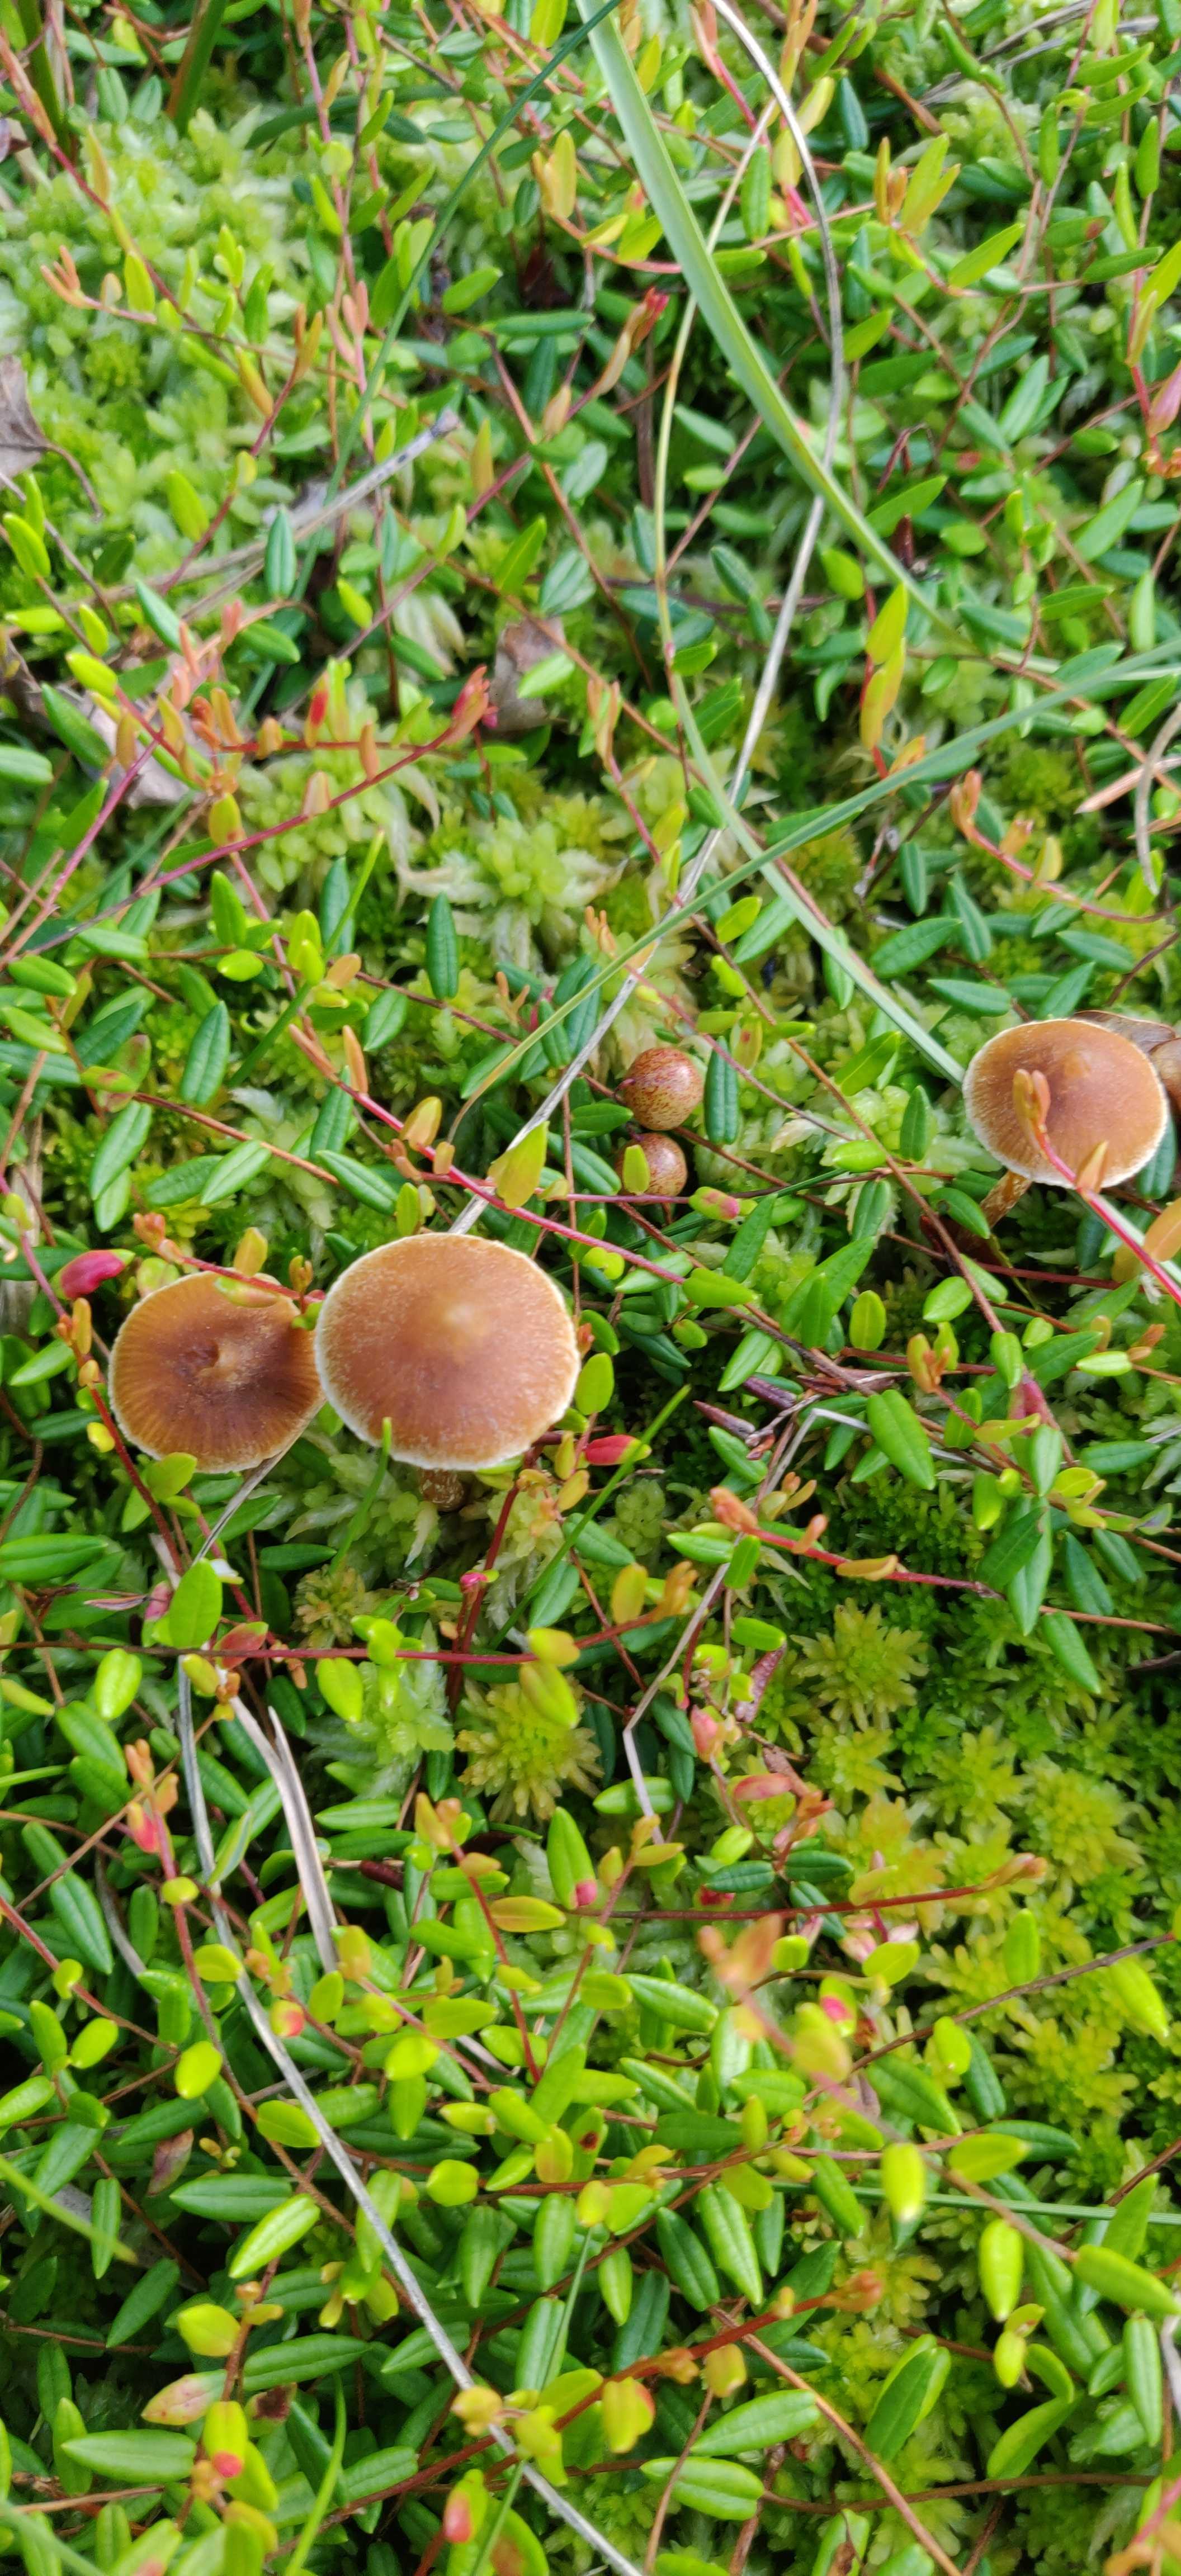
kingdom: Fungi
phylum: Basidiomycota
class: Agaricomycetes
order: Agaricales
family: Hymenogastraceae
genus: Galerina
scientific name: Galerina paludosa
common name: mose-hjelmhat
